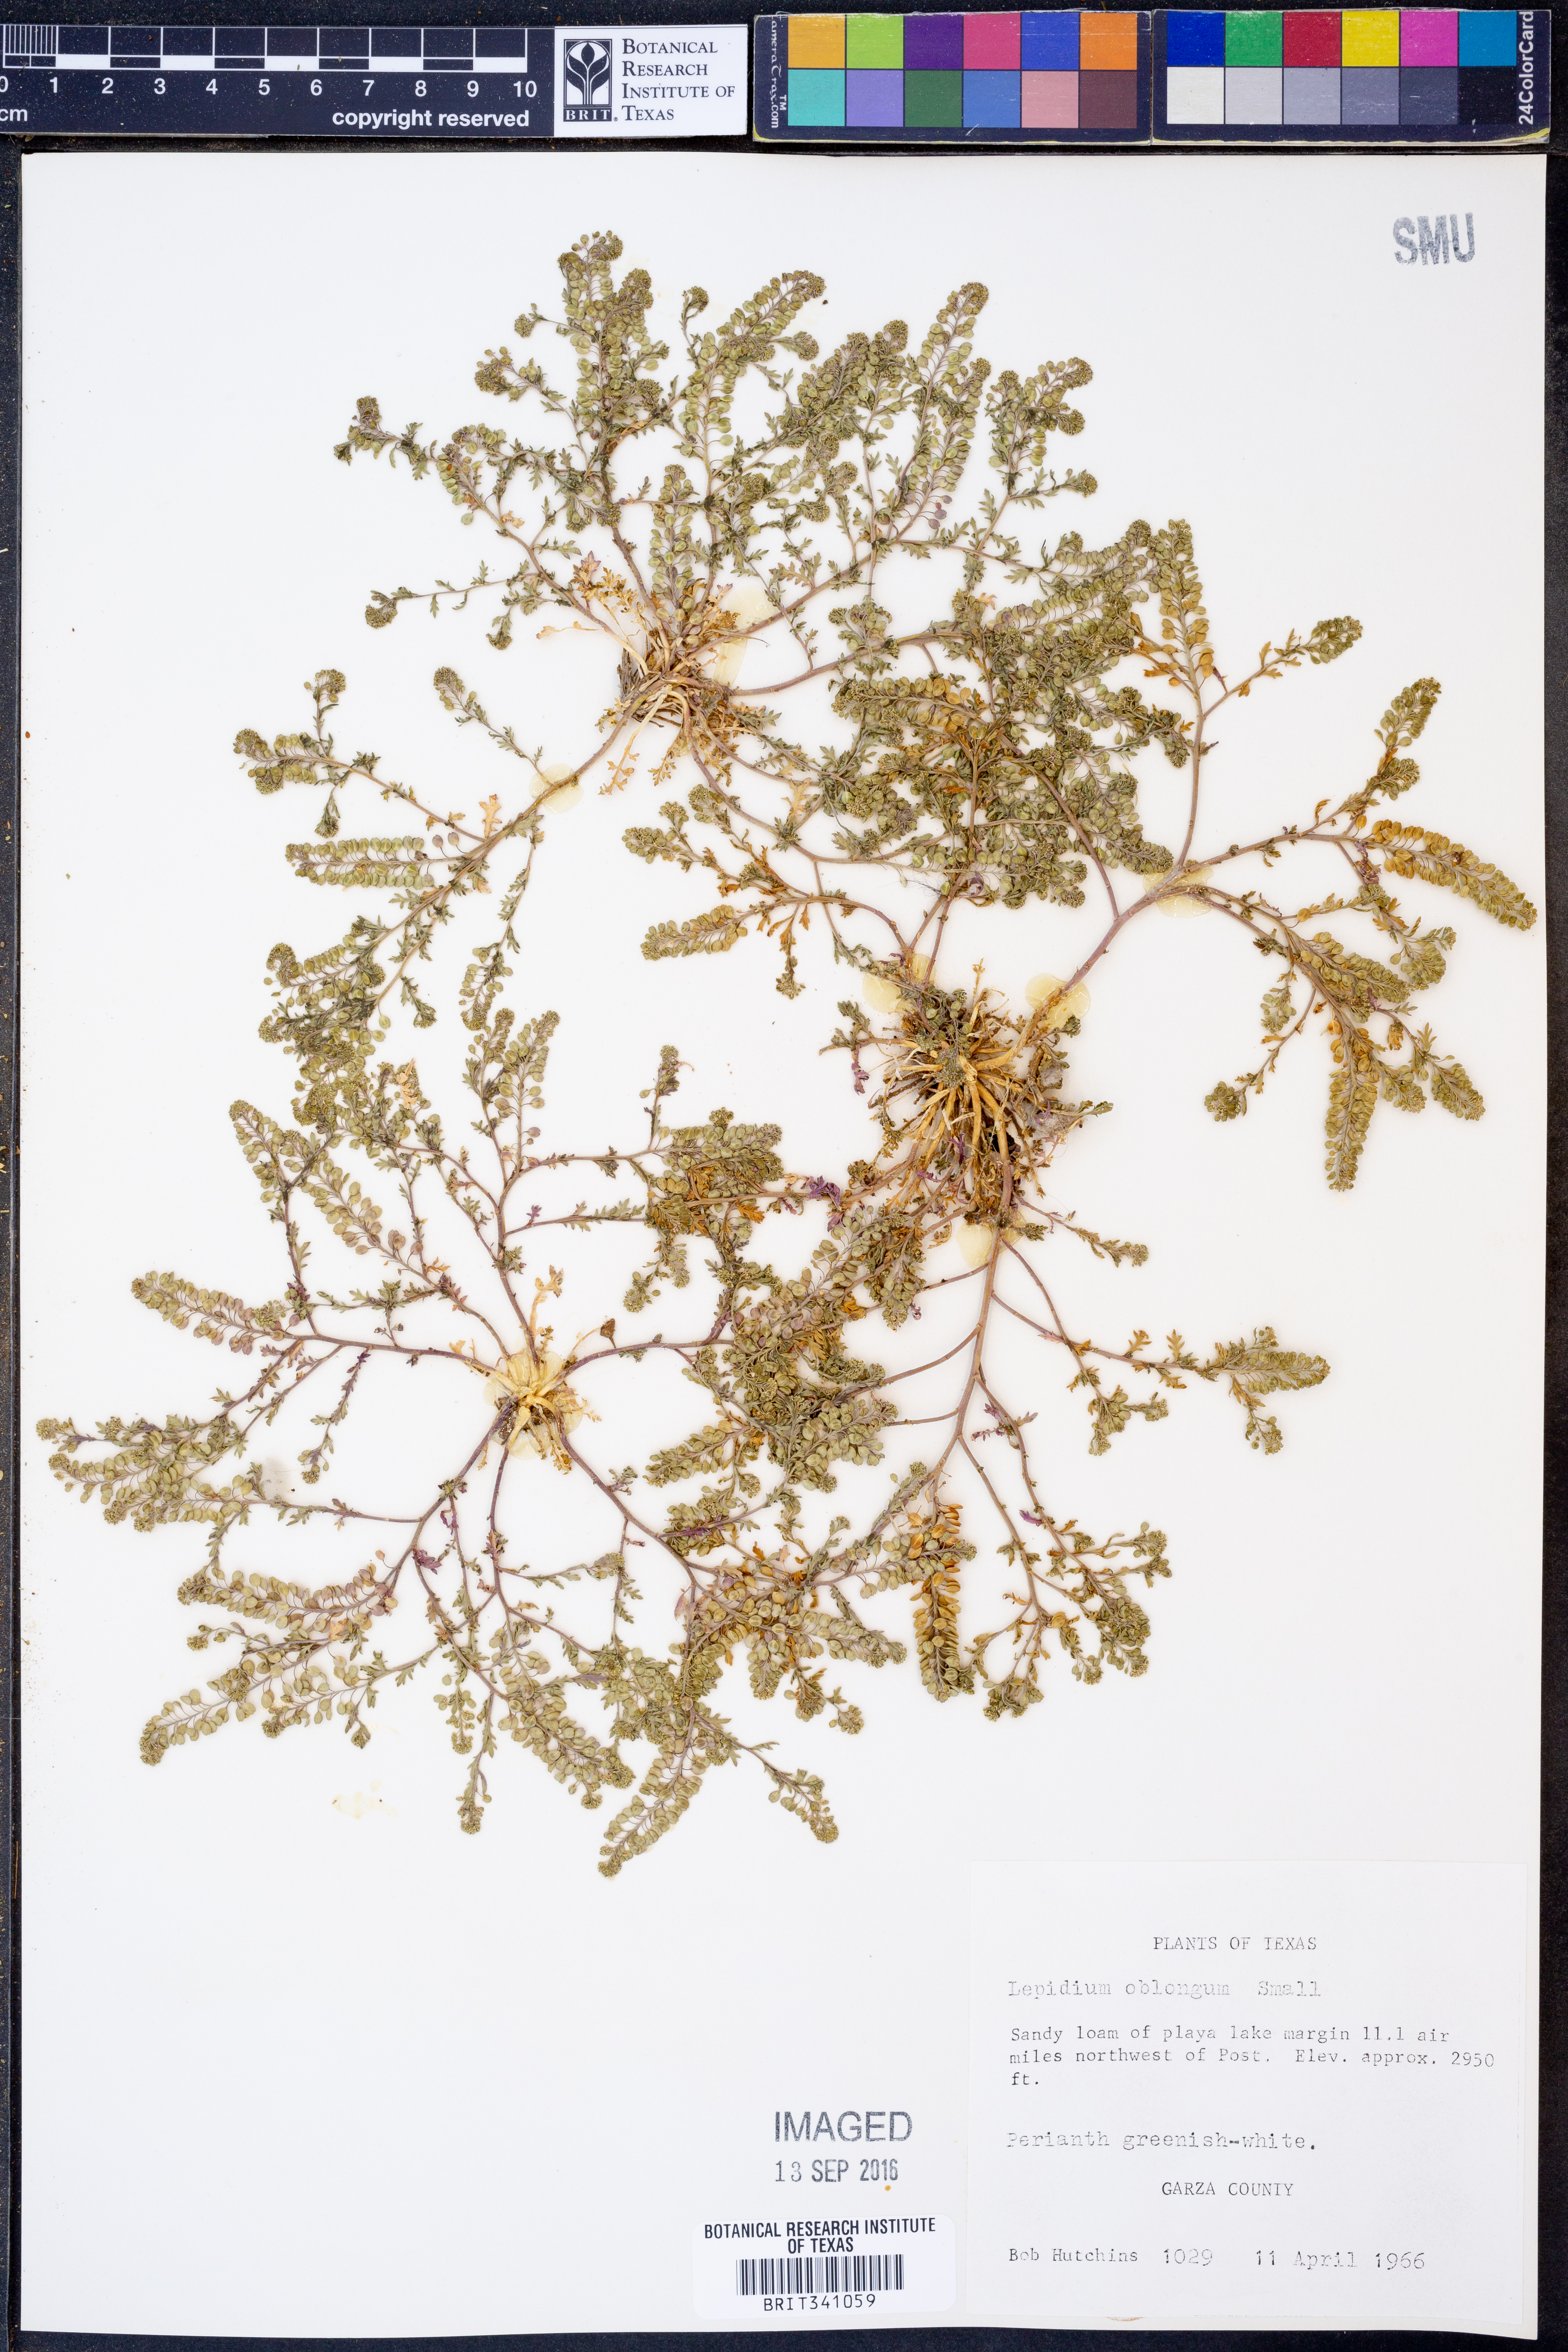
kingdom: Plantae
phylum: Tracheophyta
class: Magnoliopsida
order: Brassicales
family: Brassicaceae
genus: Lepidium
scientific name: Lepidium oblongum
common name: Veiny pepperweed
